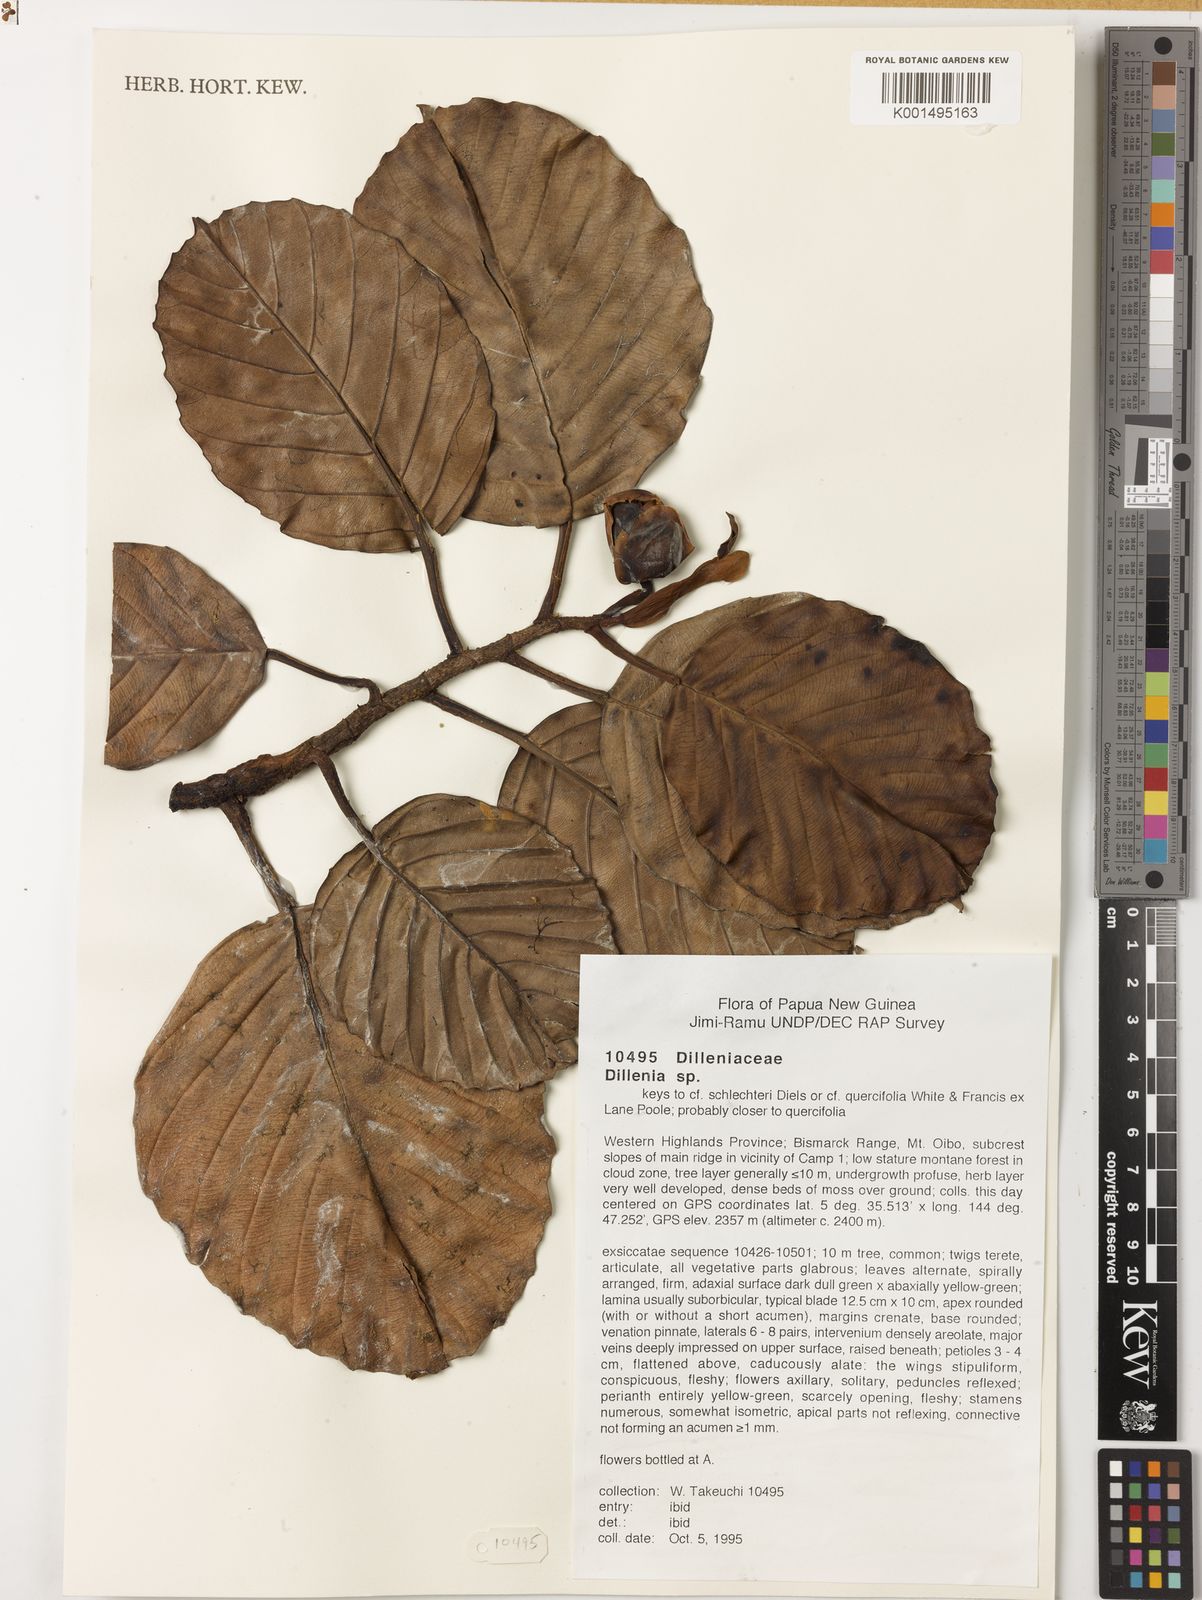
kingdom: Plantae
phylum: Tracheophyta
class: Magnoliopsida
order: Dilleniales
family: Dilleniaceae
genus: Dillenia
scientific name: Dillenia
